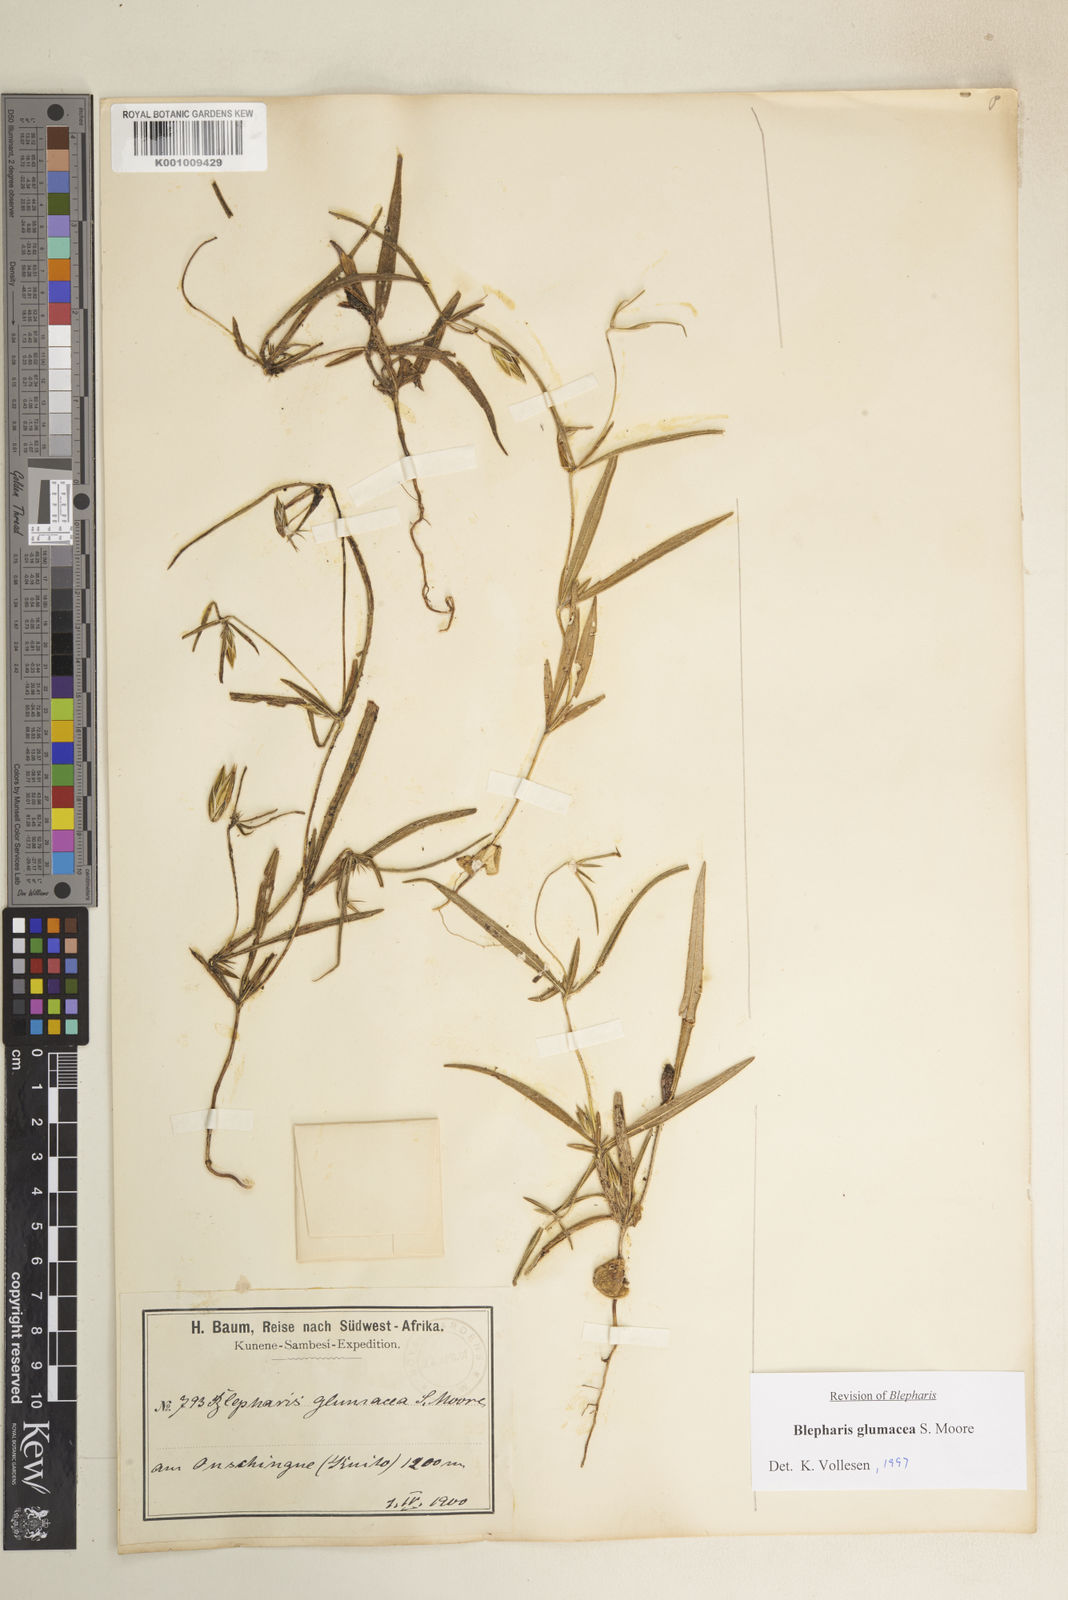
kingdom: Plantae
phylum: Tracheophyta
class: Magnoliopsida
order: Lamiales
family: Acanthaceae
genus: Blepharis
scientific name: Blepharis glumacea
